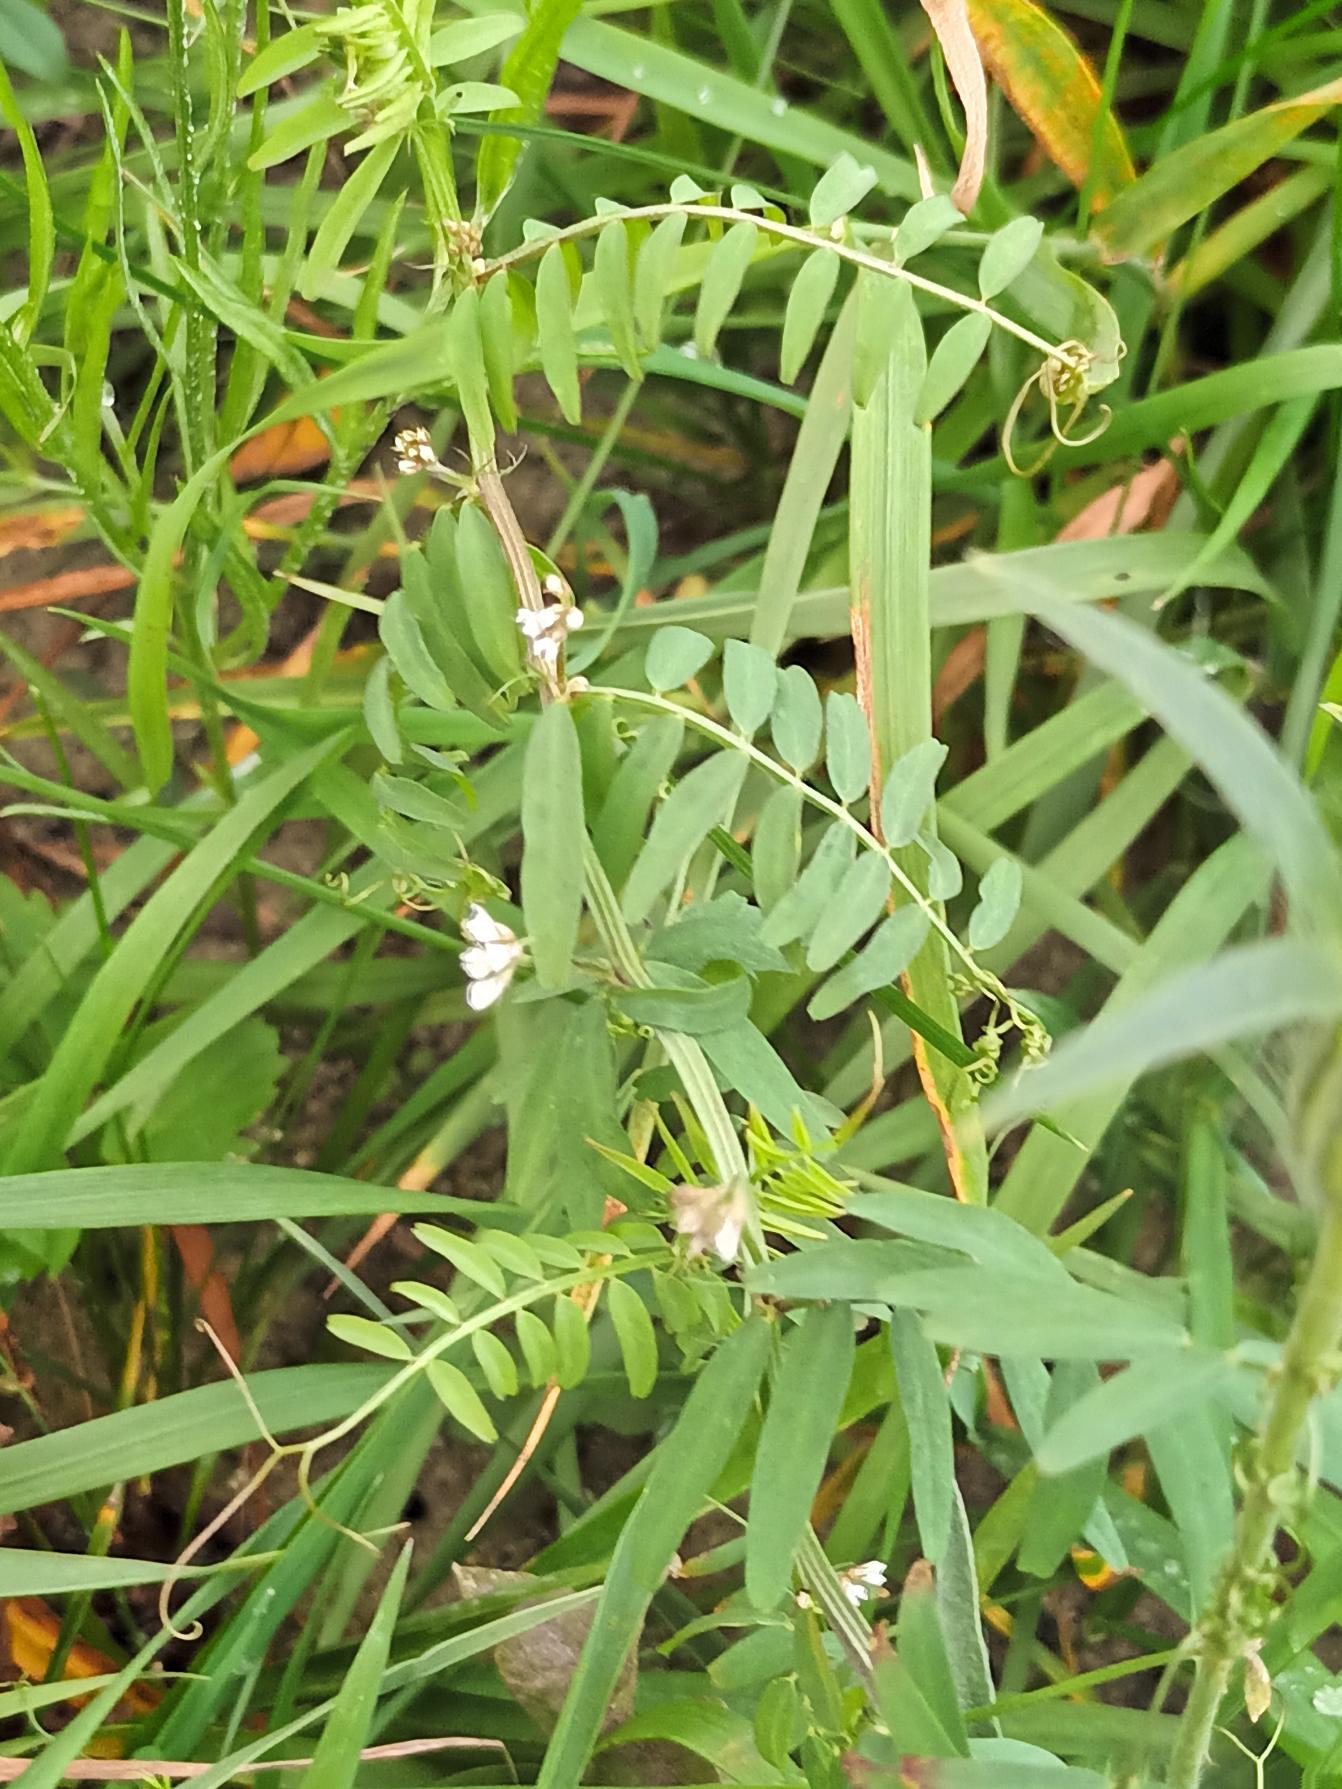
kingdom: Plantae
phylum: Tracheophyta
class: Magnoliopsida
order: Fabales
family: Fabaceae
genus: Vicia
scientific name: Vicia hirsuta
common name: Tofrøet vikke
